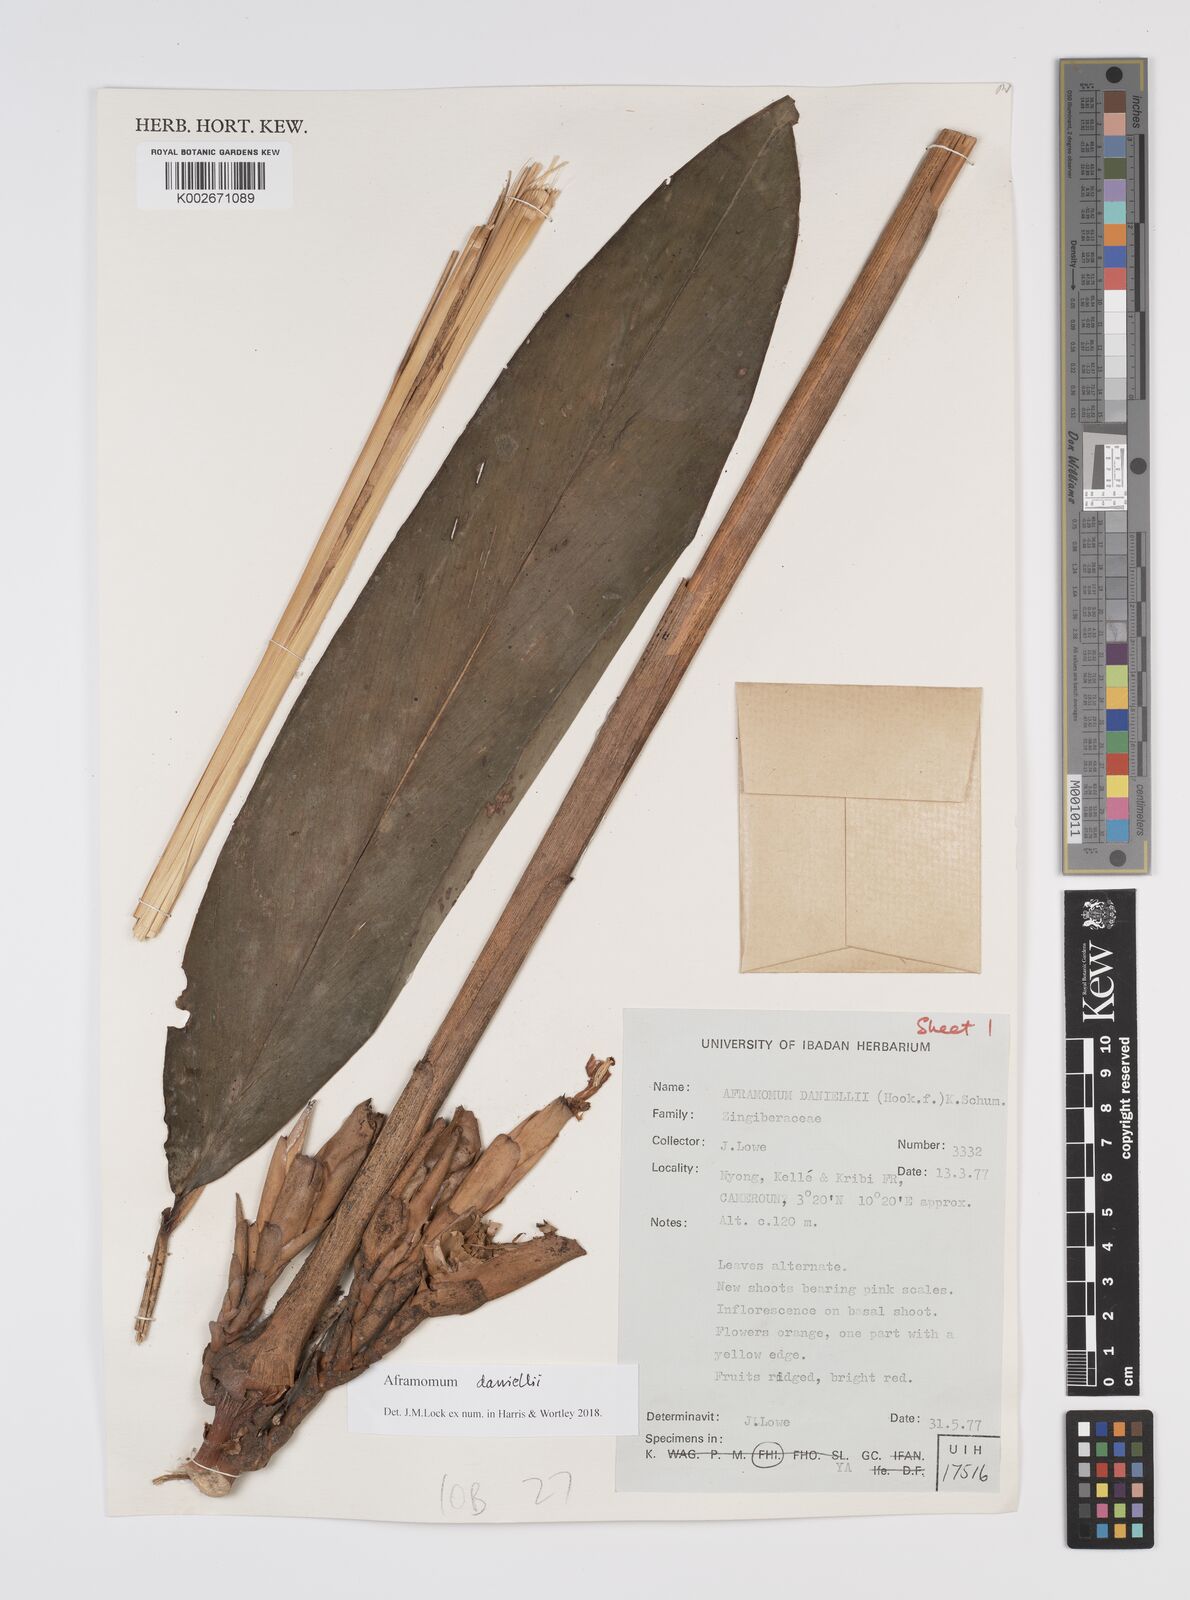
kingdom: Plantae
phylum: Tracheophyta
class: Liliopsida
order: Zingiberales
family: Zingiberaceae
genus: Aframomum
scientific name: Aframomum daniellii
